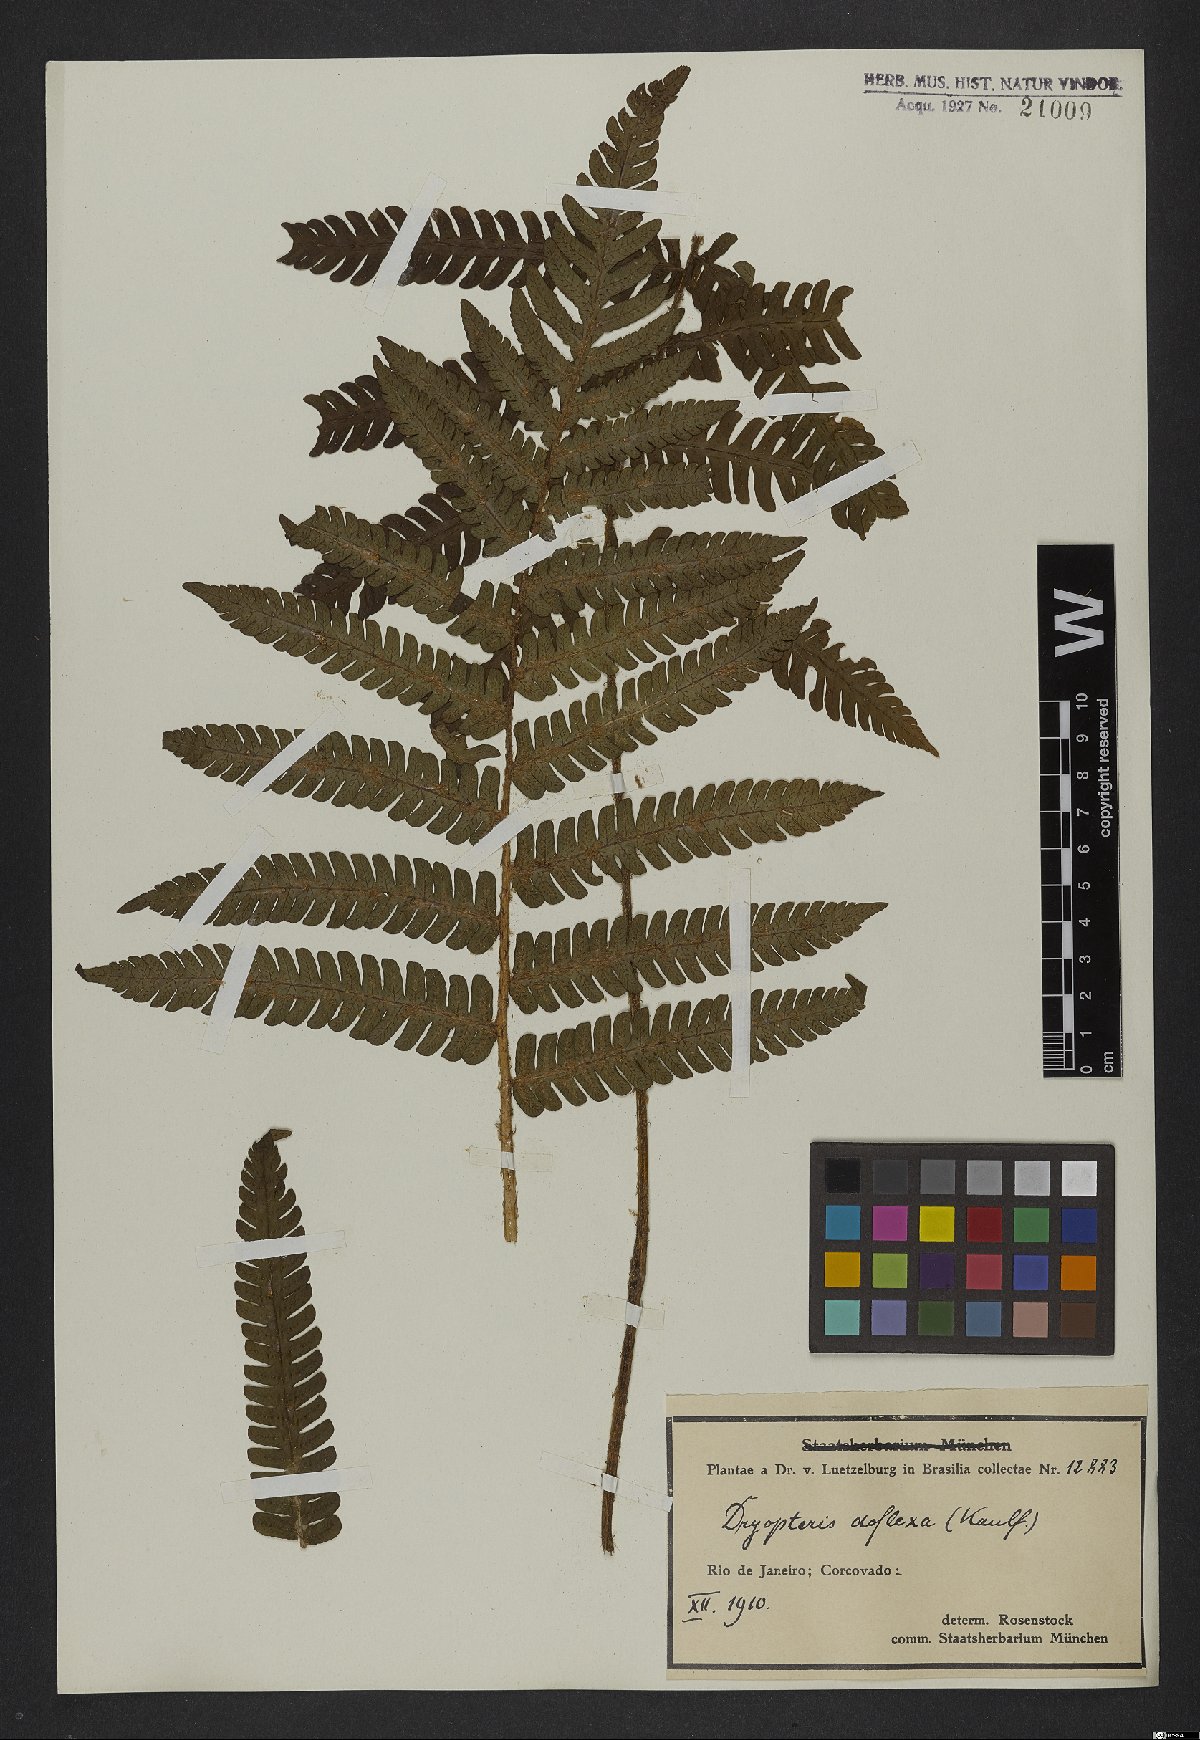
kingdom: Plantae
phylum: Tracheophyta
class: Polypodiopsida
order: Polypodiales
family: Dryopteridaceae
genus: Ctenitis
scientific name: Ctenitis deflexa
